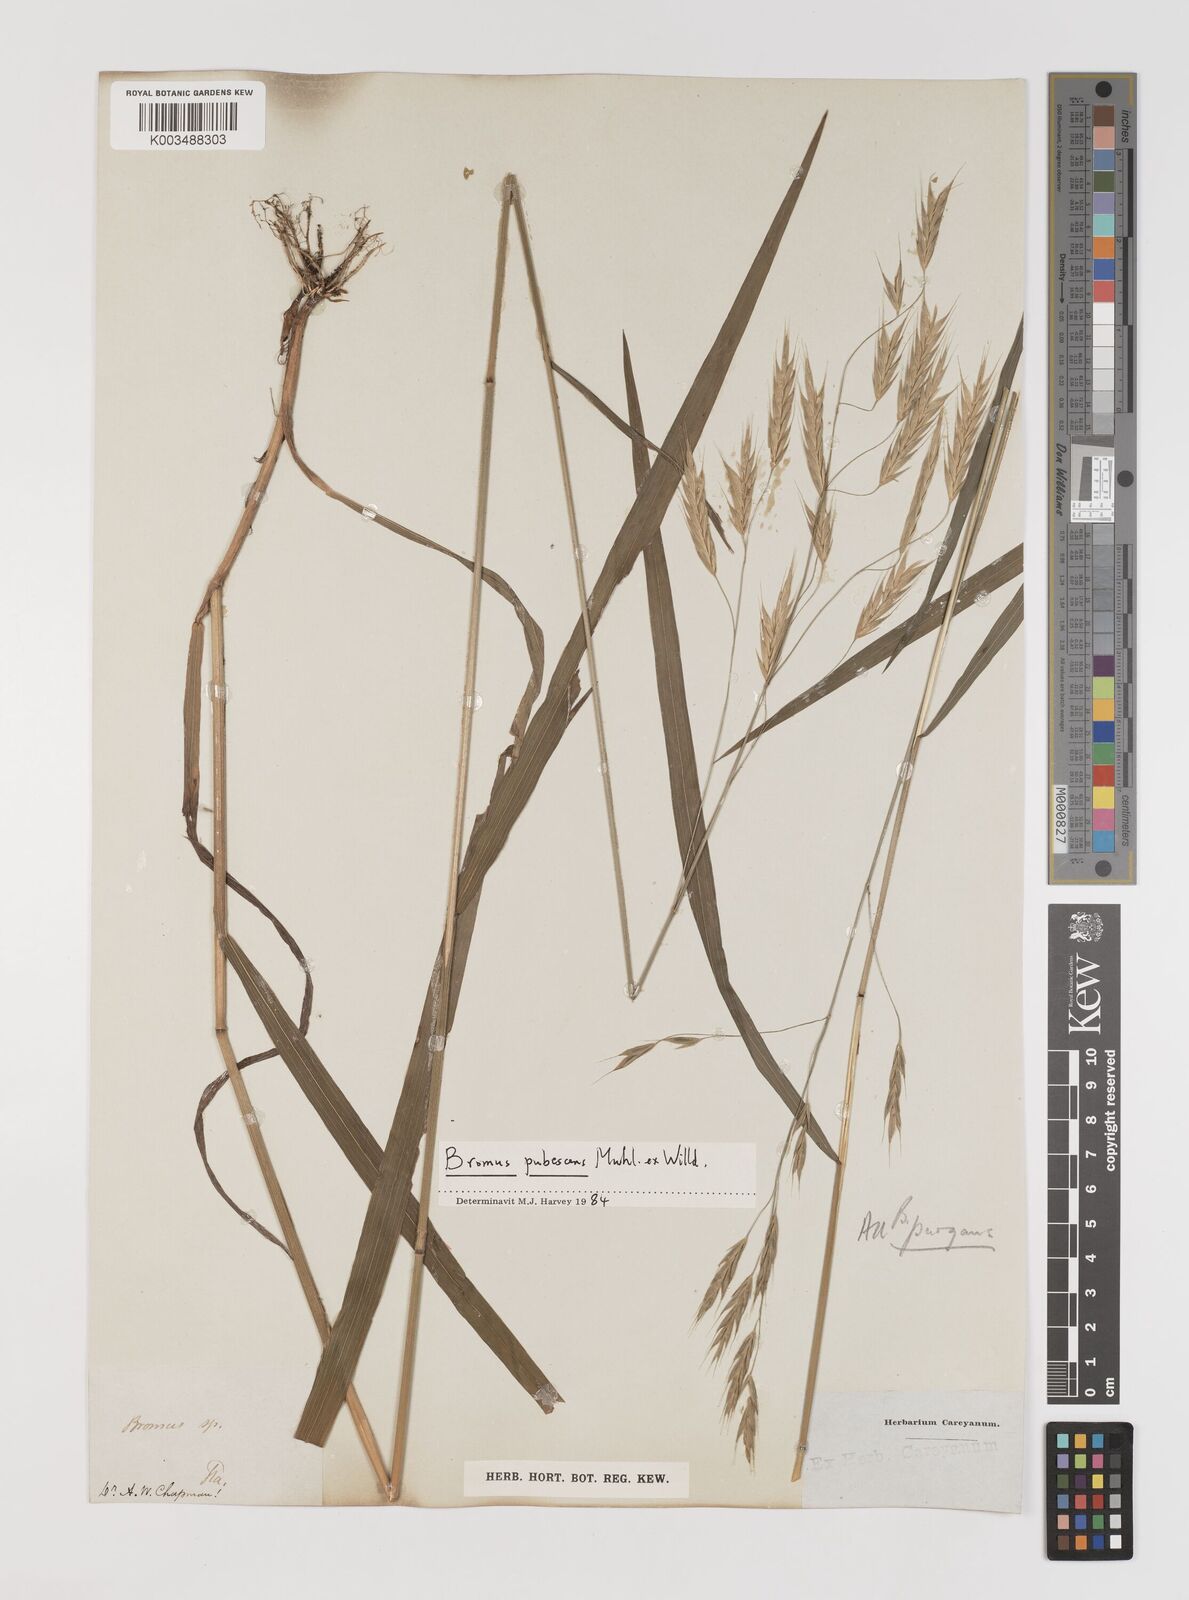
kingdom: Plantae
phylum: Tracheophyta
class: Liliopsida
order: Poales
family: Poaceae
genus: Bromus
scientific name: Bromus pubescens
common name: Hairy wood brome grass
